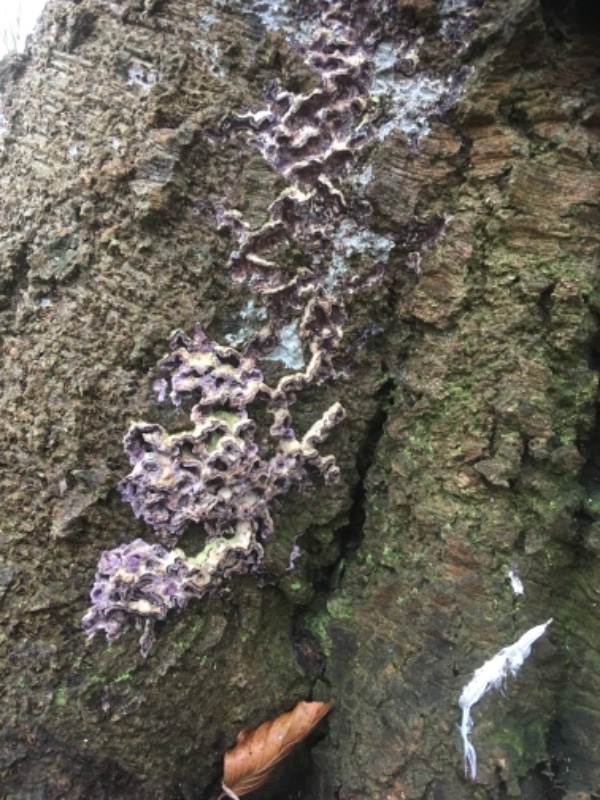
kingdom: Fungi
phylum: Basidiomycota
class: Agaricomycetes
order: Agaricales
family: Cyphellaceae
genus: Chondrostereum
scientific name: Chondrostereum purpureum
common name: purpurlædersvamp
